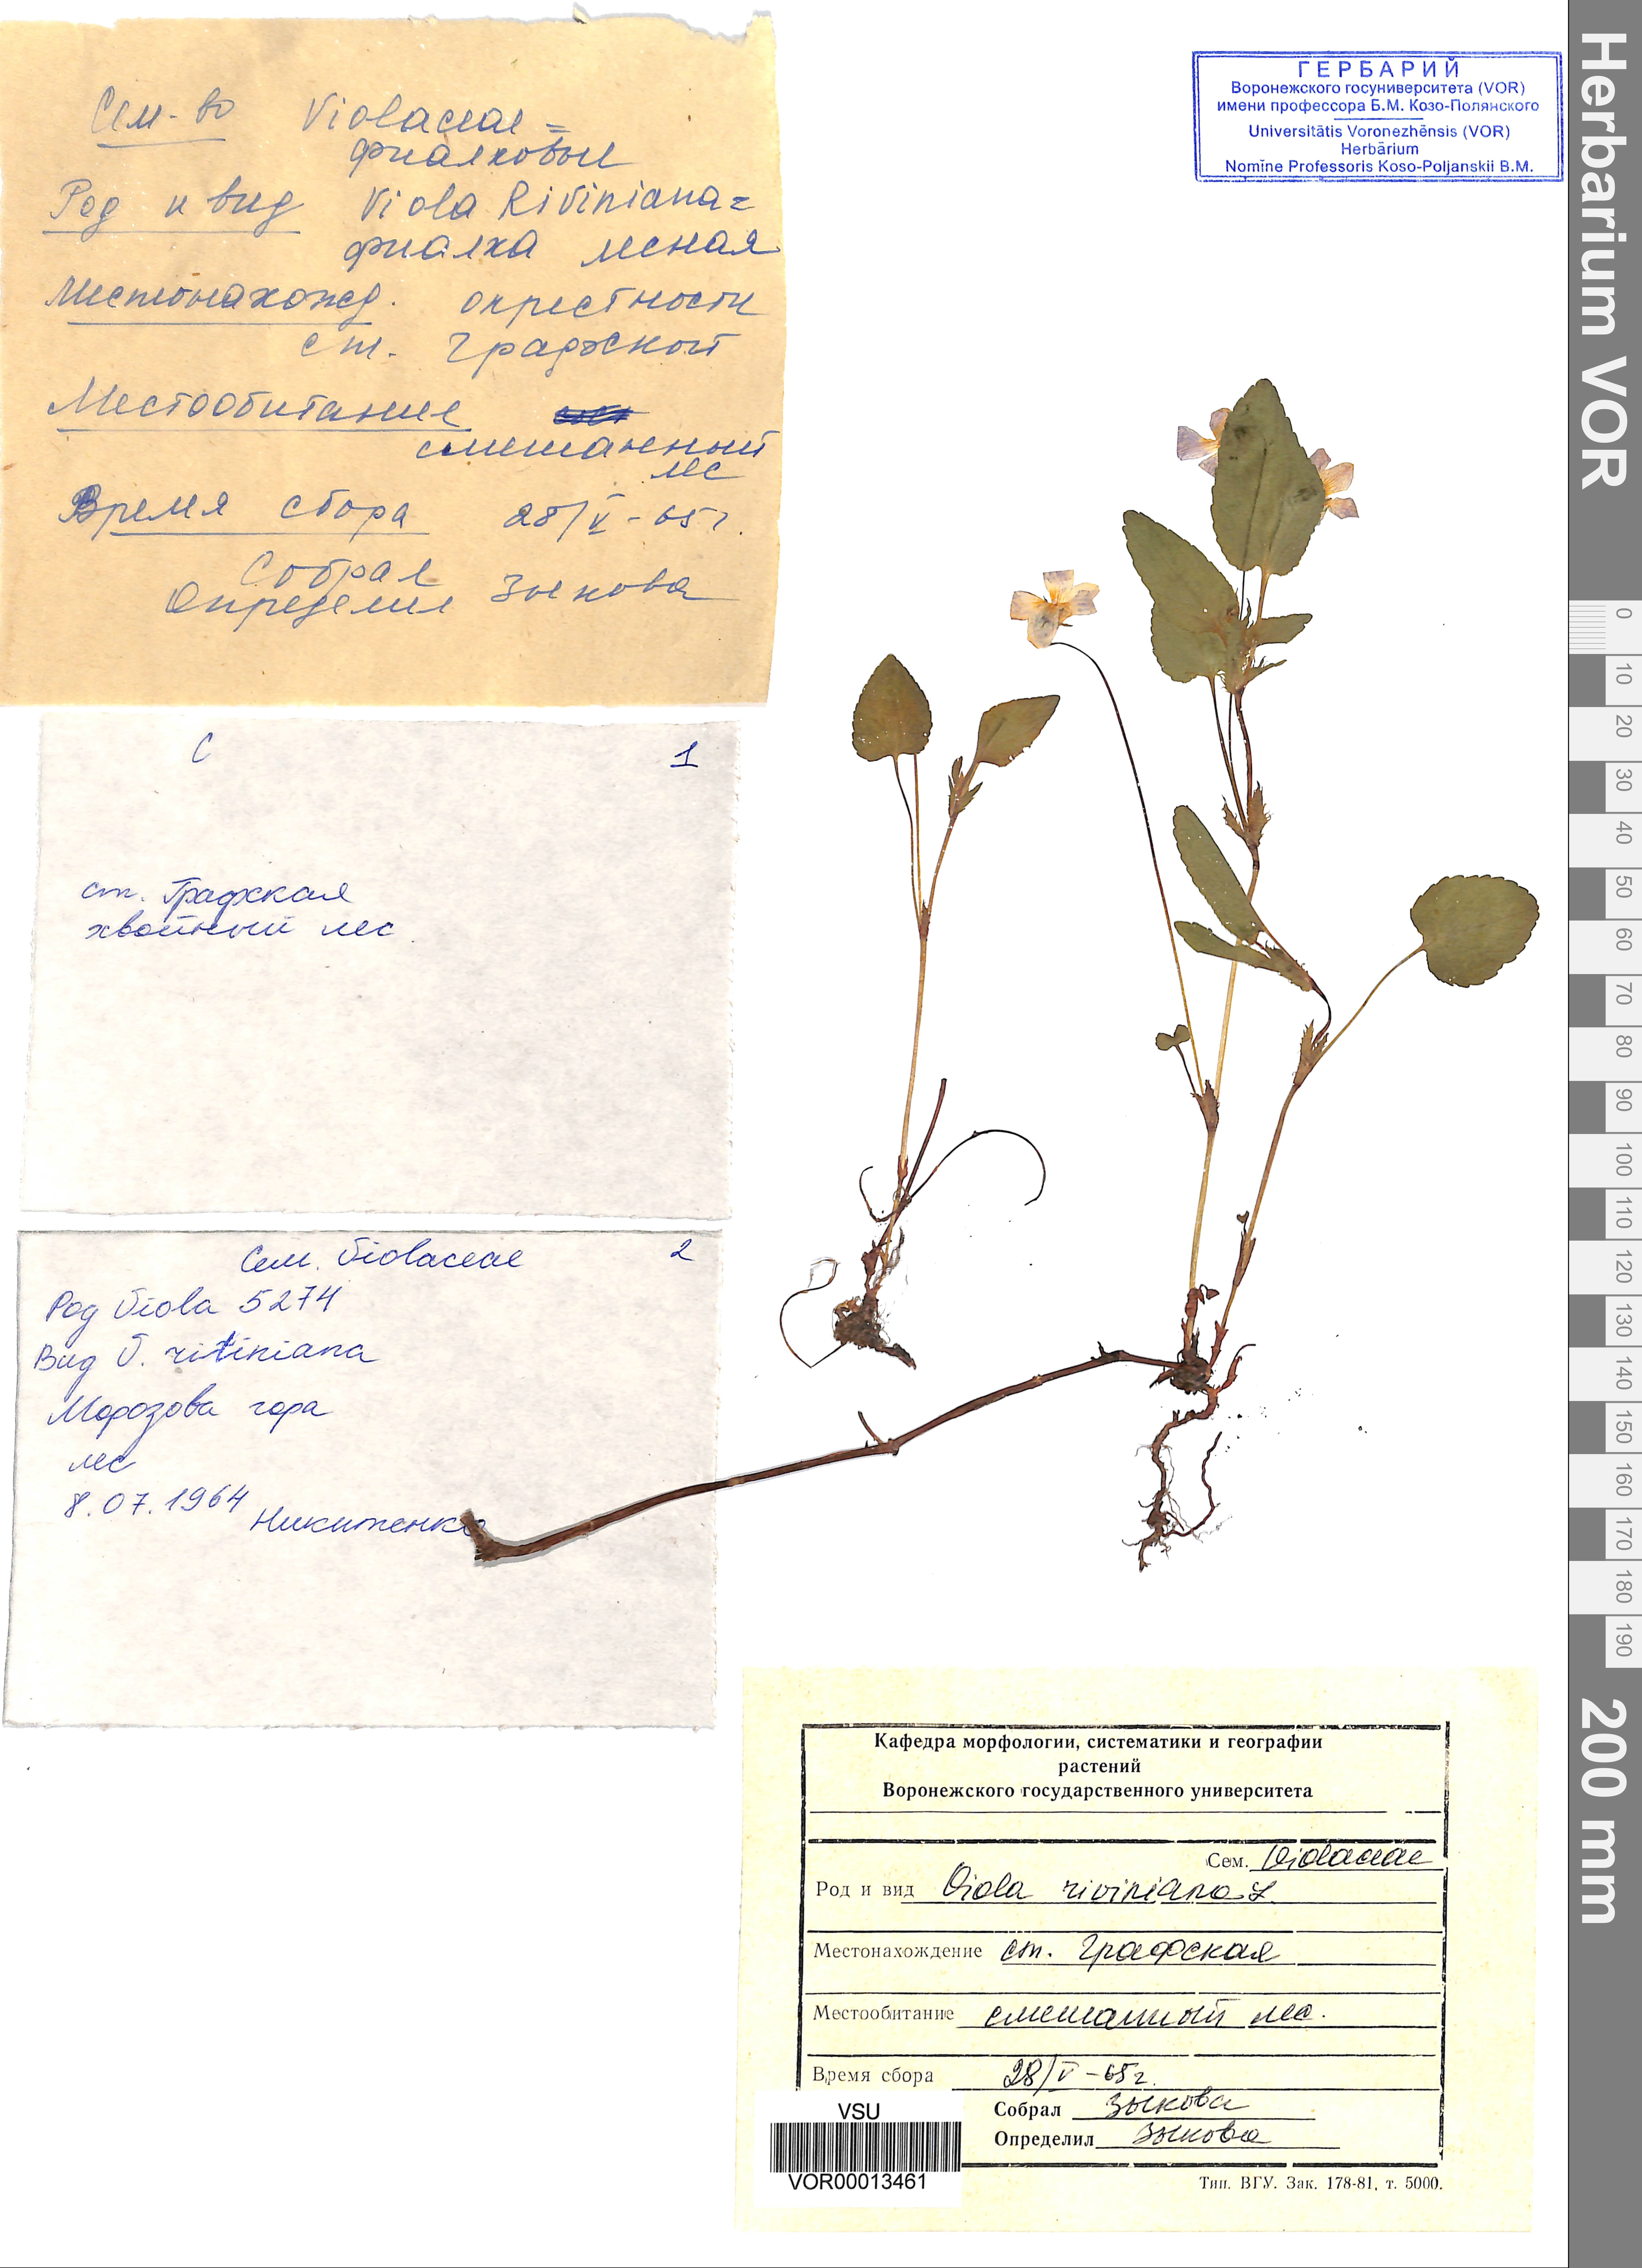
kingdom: Plantae
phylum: Tracheophyta
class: Magnoliopsida
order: Malpighiales
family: Violaceae
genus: Viola
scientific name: Viola riviniana
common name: Common dog-violet
